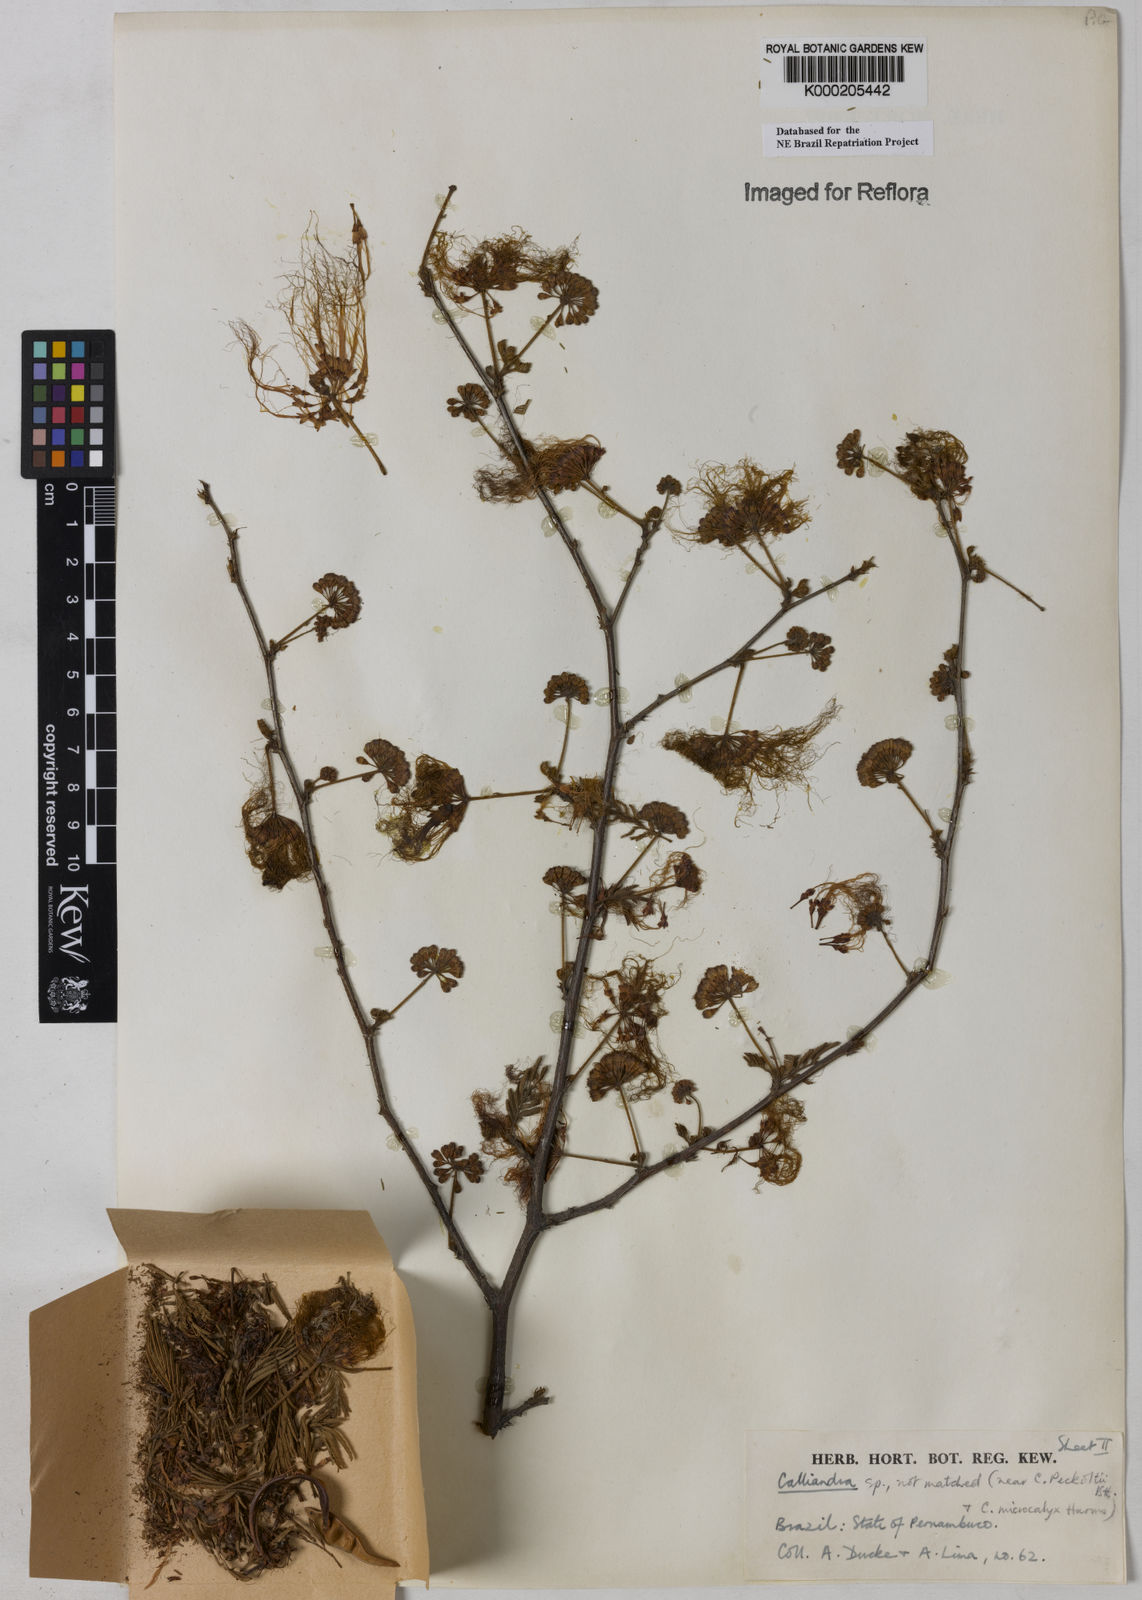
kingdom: Plantae
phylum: Tracheophyta
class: Magnoliopsida
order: Fabales
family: Fabaceae
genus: Calliandra
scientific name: Calliandra parvifolia
